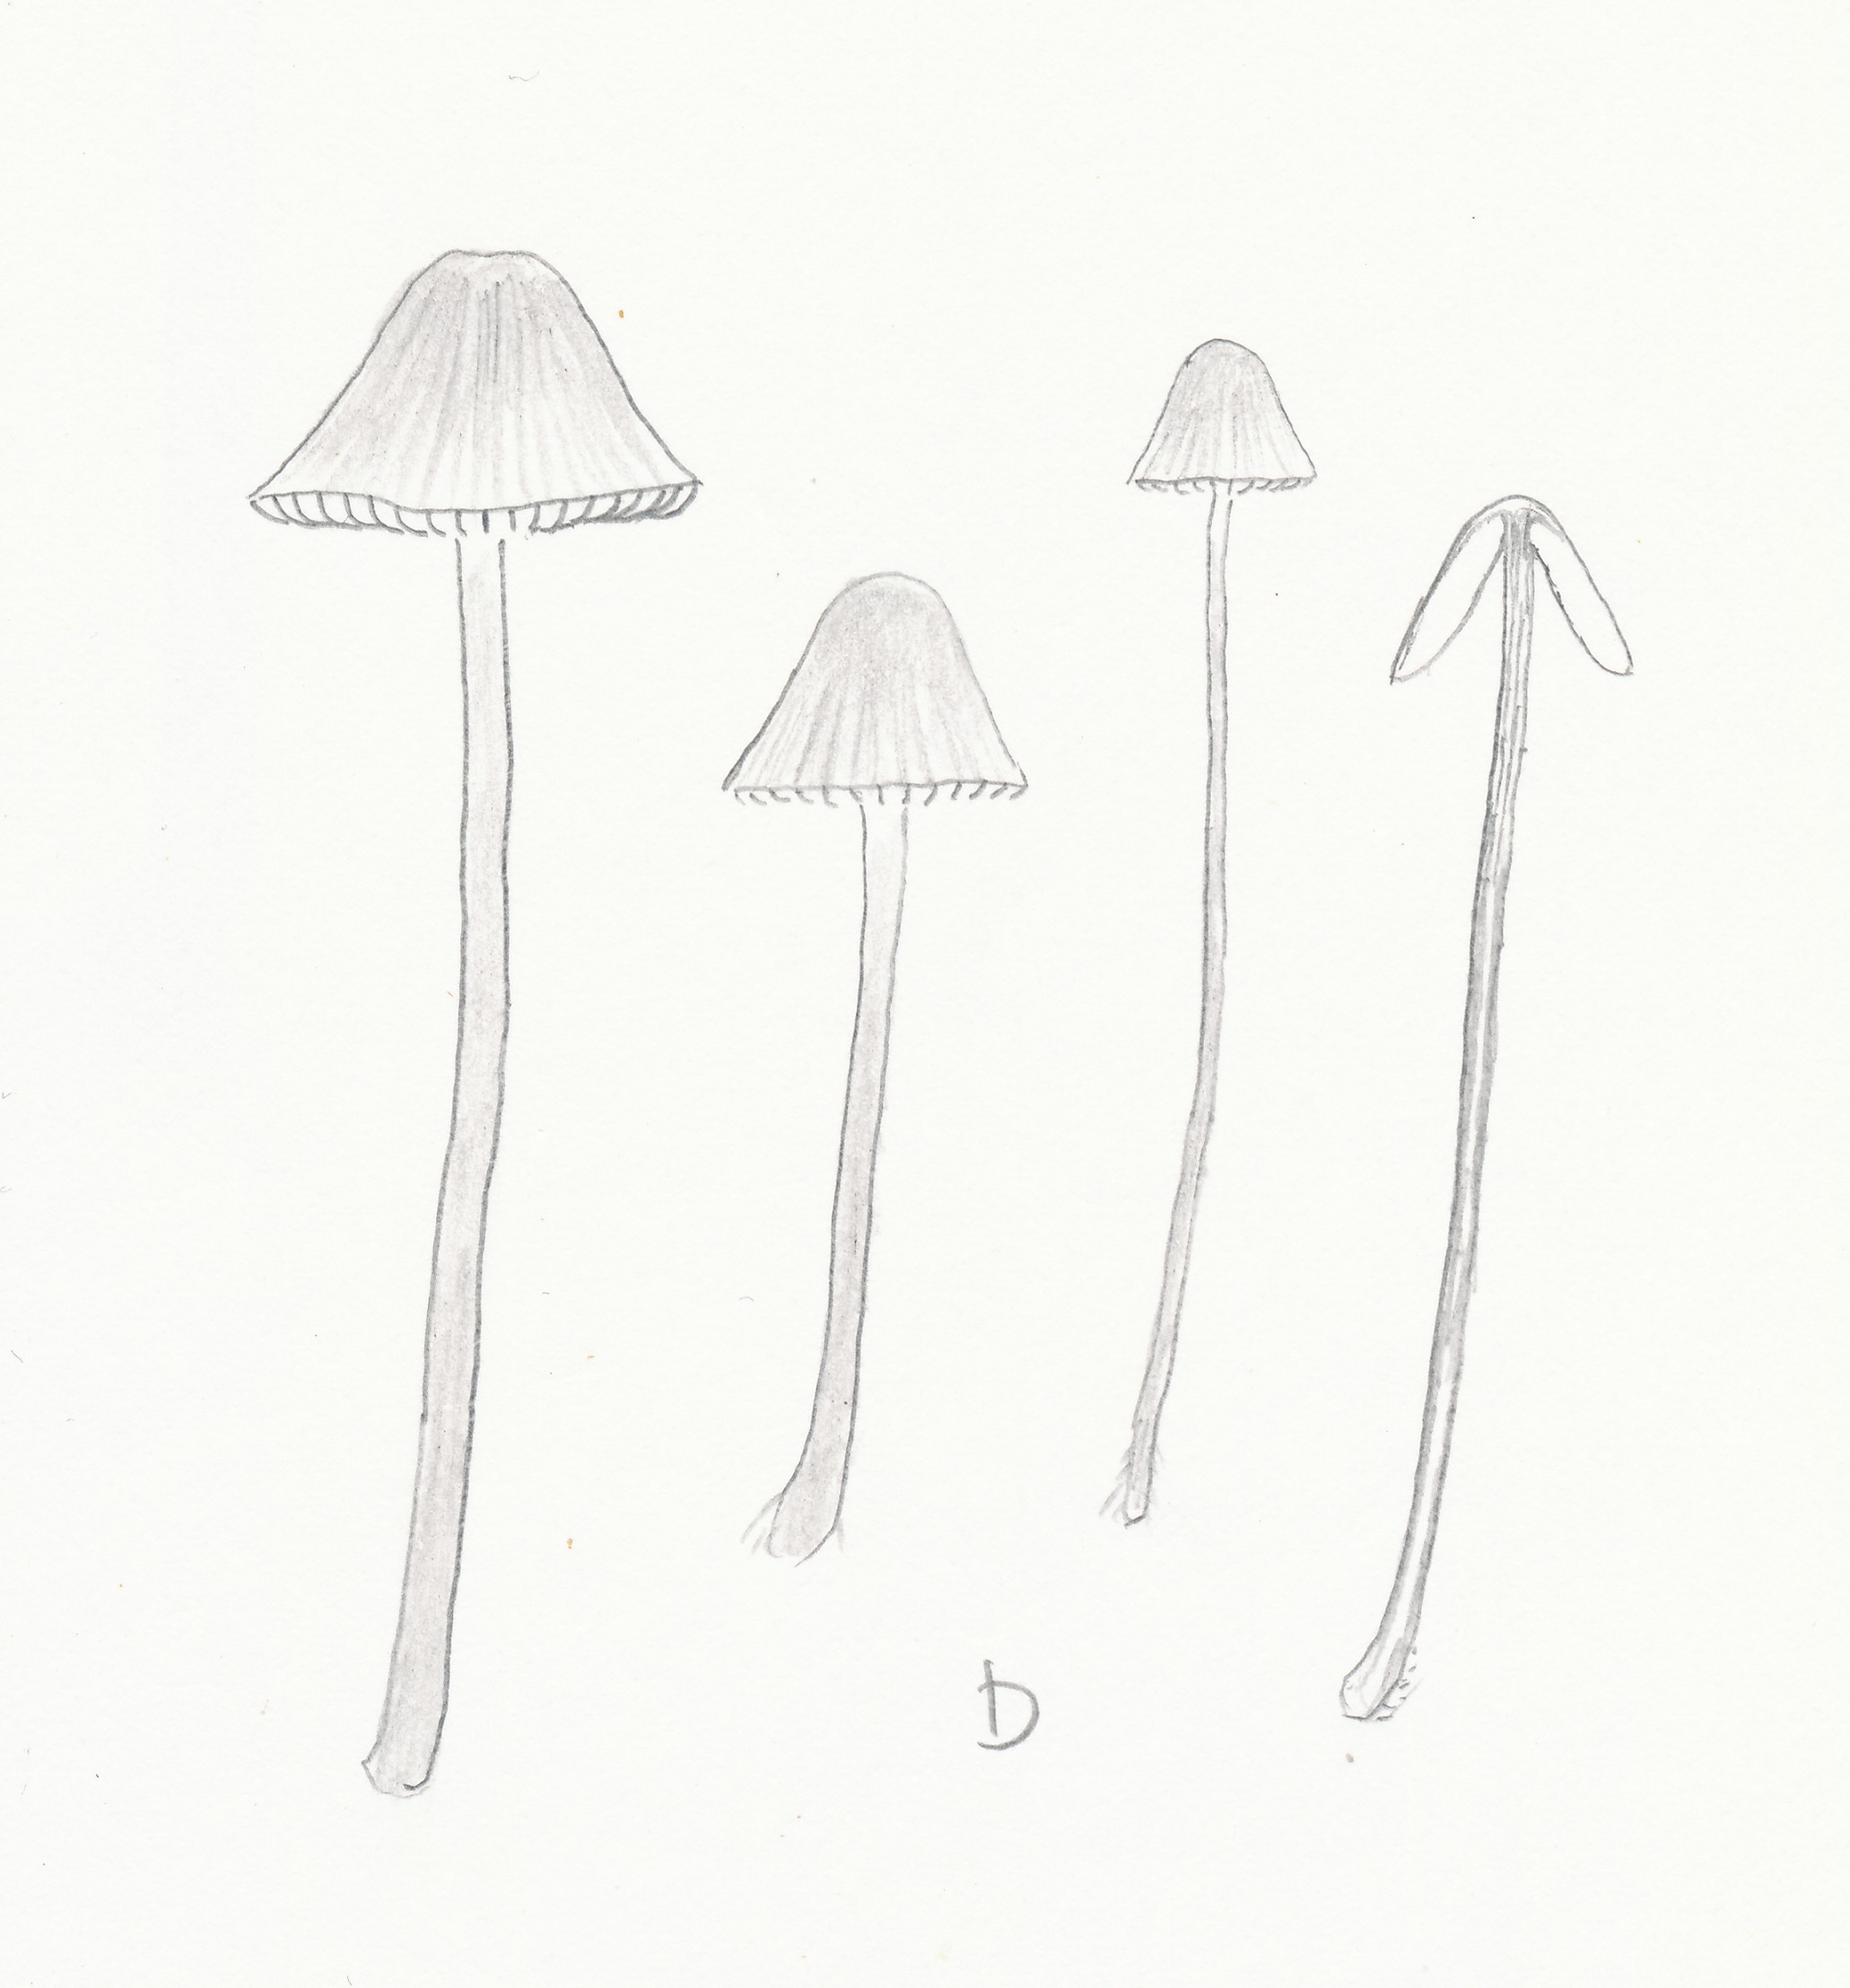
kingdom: Fungi
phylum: Basidiomycota
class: Agaricomycetes
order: Agaricales
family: Mycenaceae
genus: Mycena
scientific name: Mycena galopus
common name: hvidmælket huesvamp
